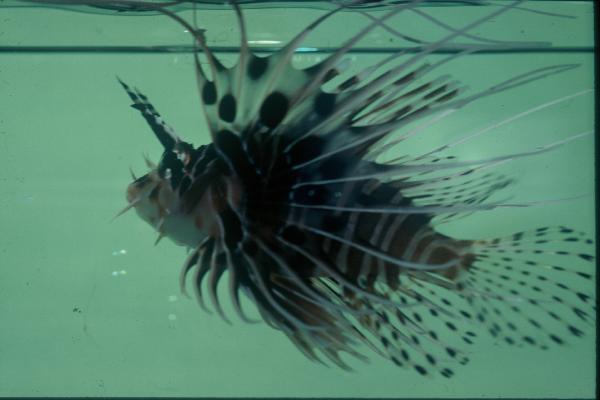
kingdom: Animalia
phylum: Chordata
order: Scorpaeniformes
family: Scorpaenidae
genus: Pterois
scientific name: Pterois miles
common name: Devil firefish
